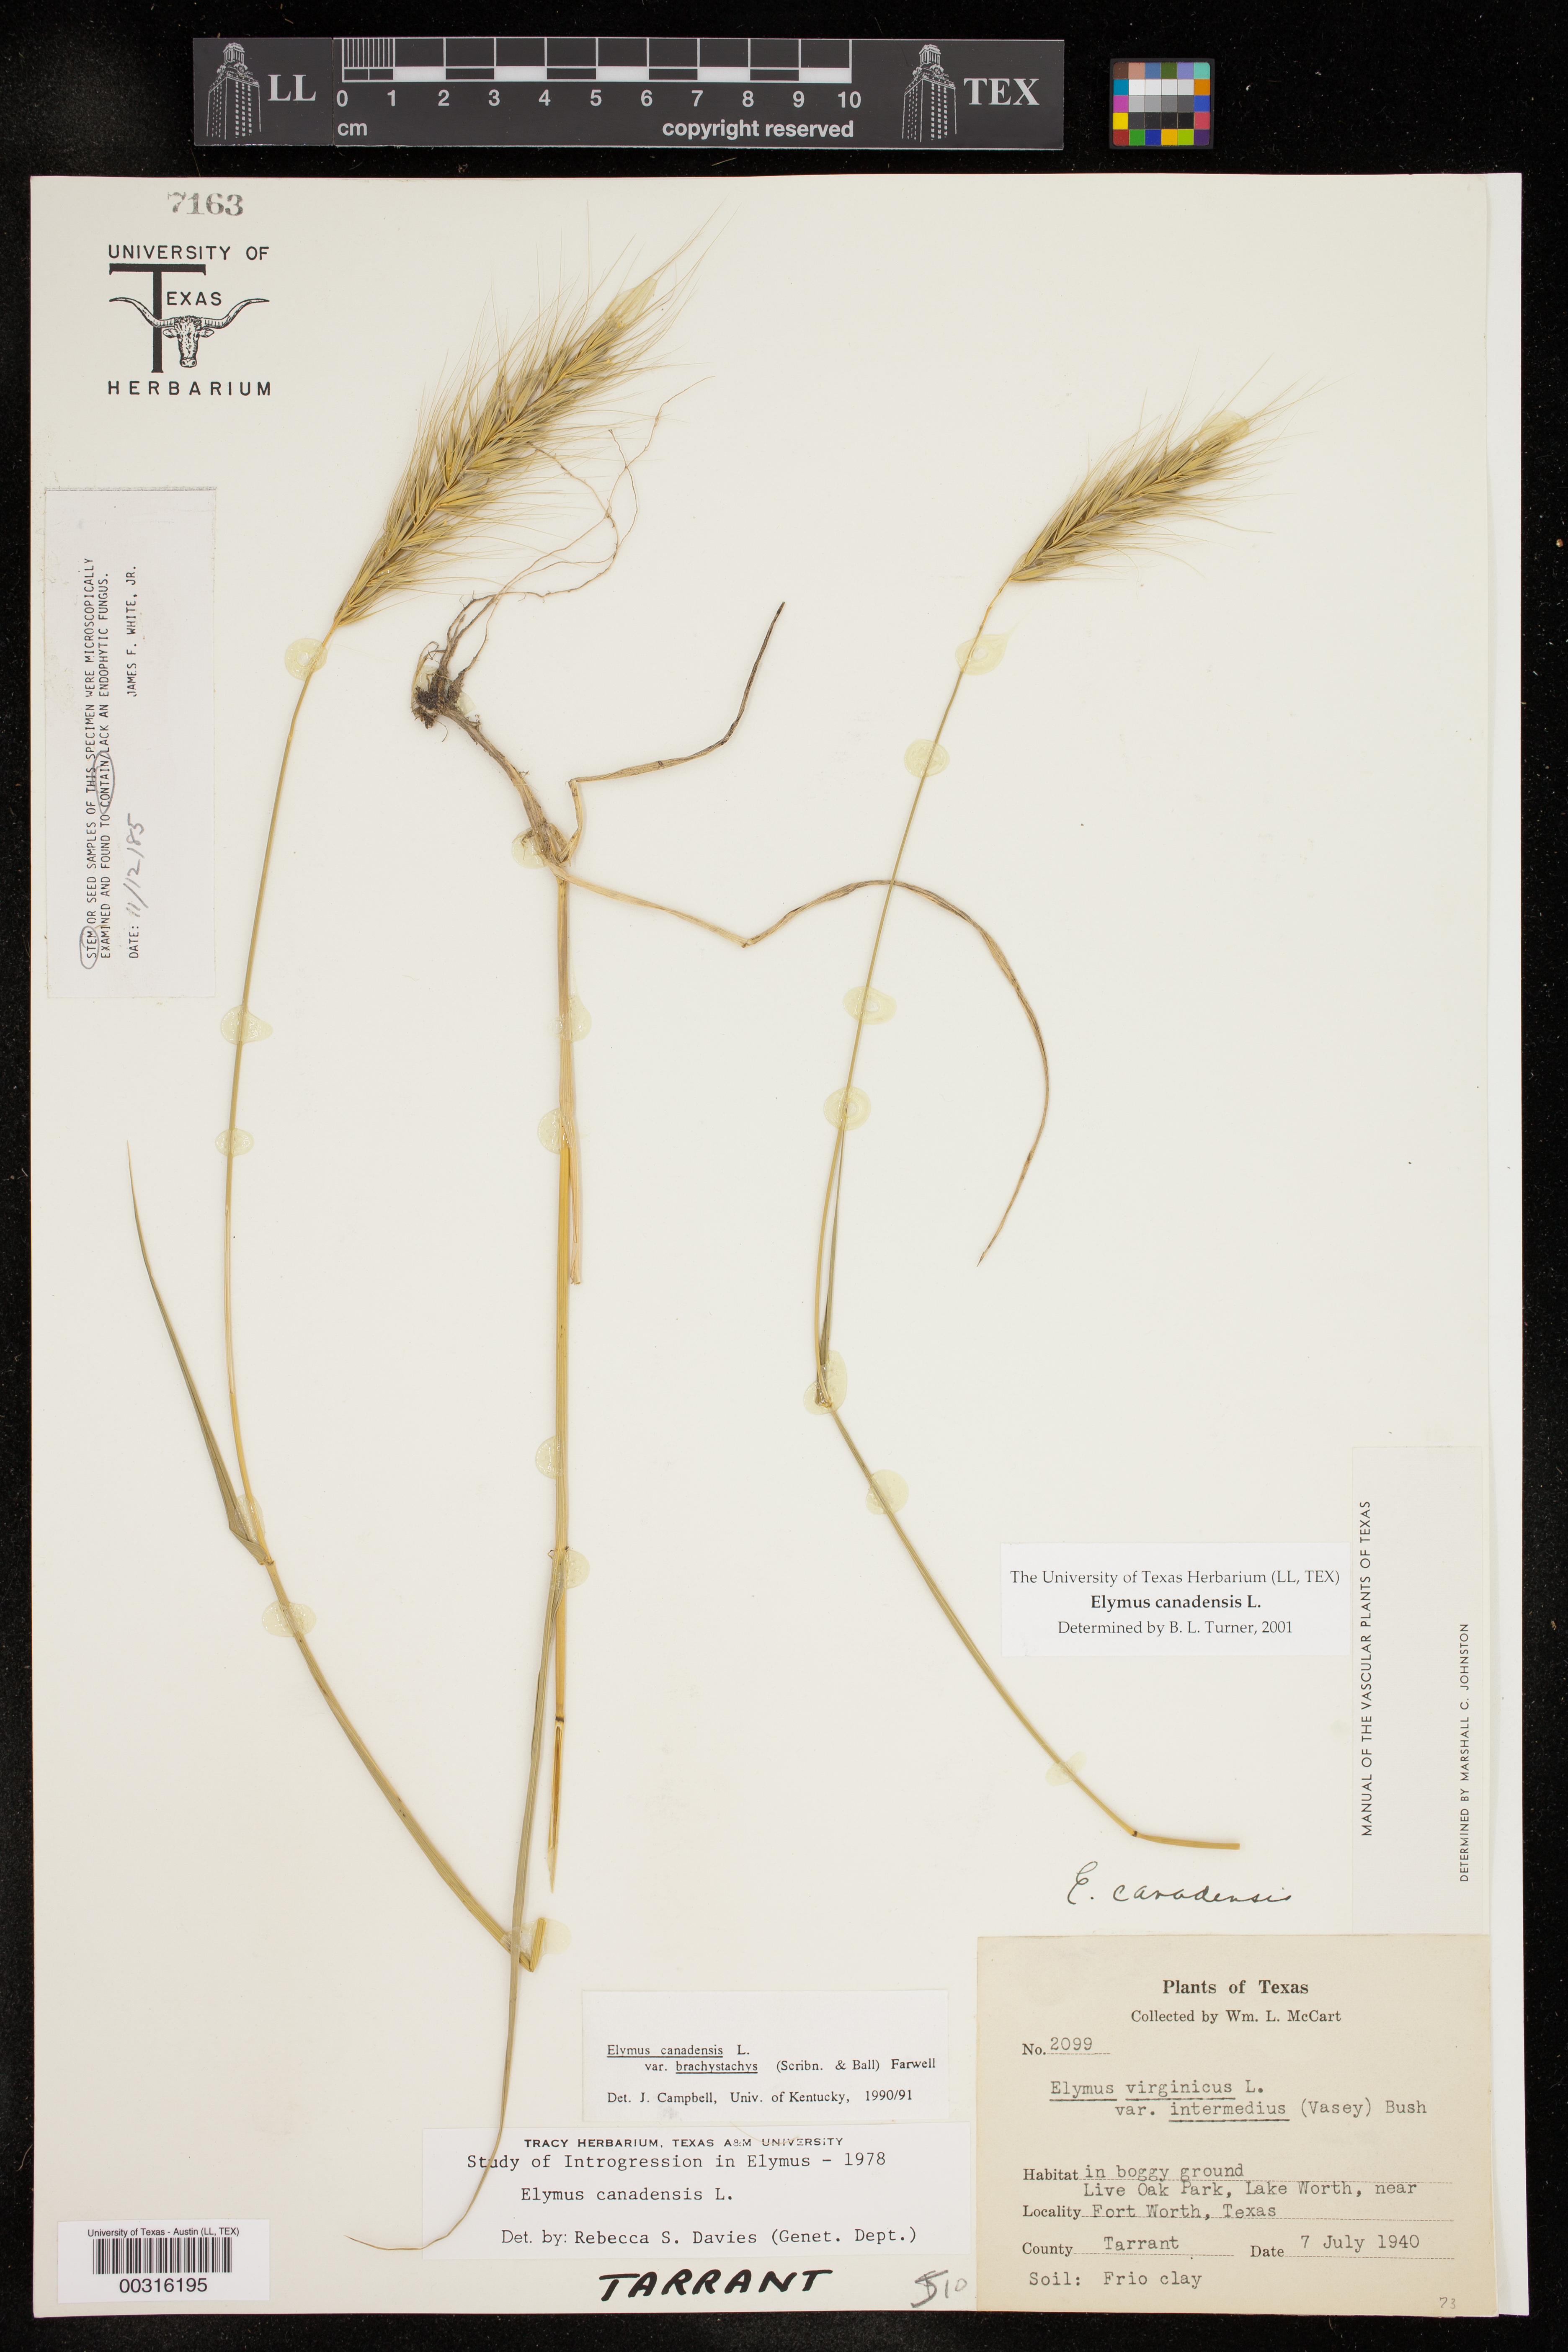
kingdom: Plantae
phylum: Tracheophyta
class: Liliopsida
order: Poales
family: Poaceae
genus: Elymus
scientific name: Elymus canadensis
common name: Canada wild rye
